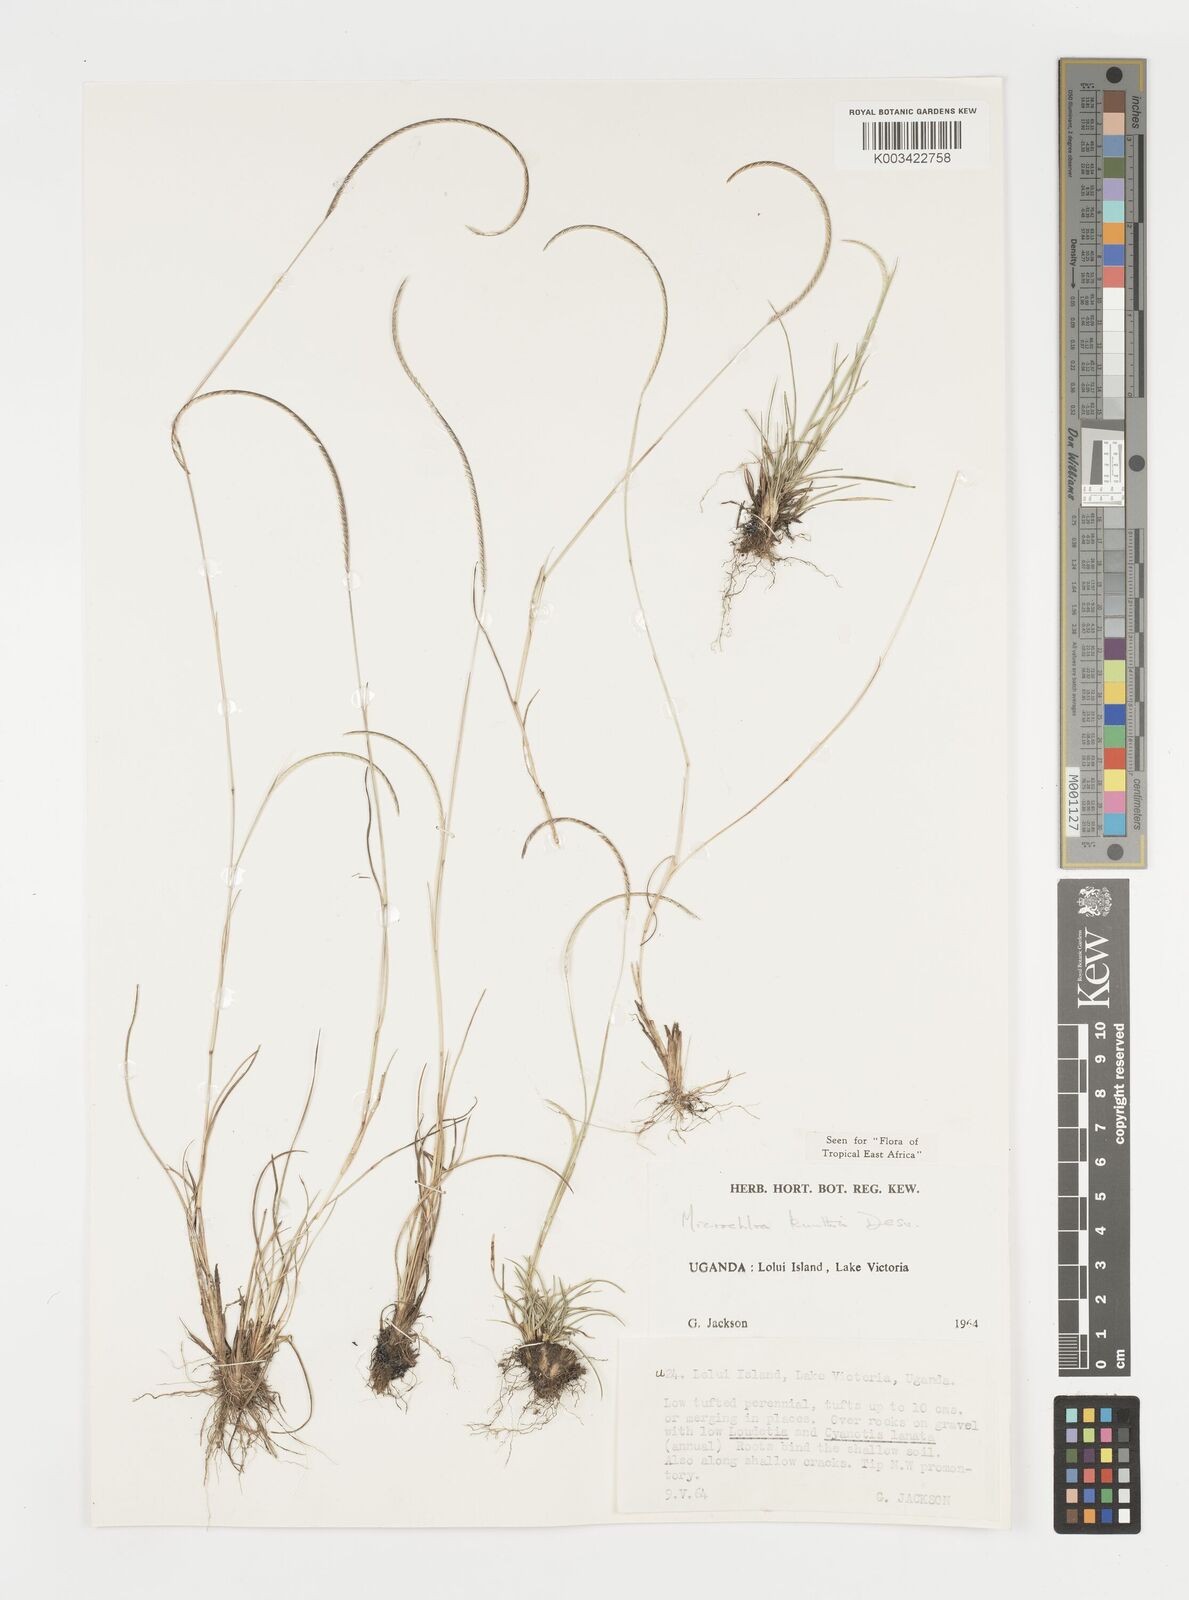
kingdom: Plantae
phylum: Tracheophyta
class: Liliopsida
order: Poales
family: Poaceae
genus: Microchloa
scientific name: Microchloa kunthii
